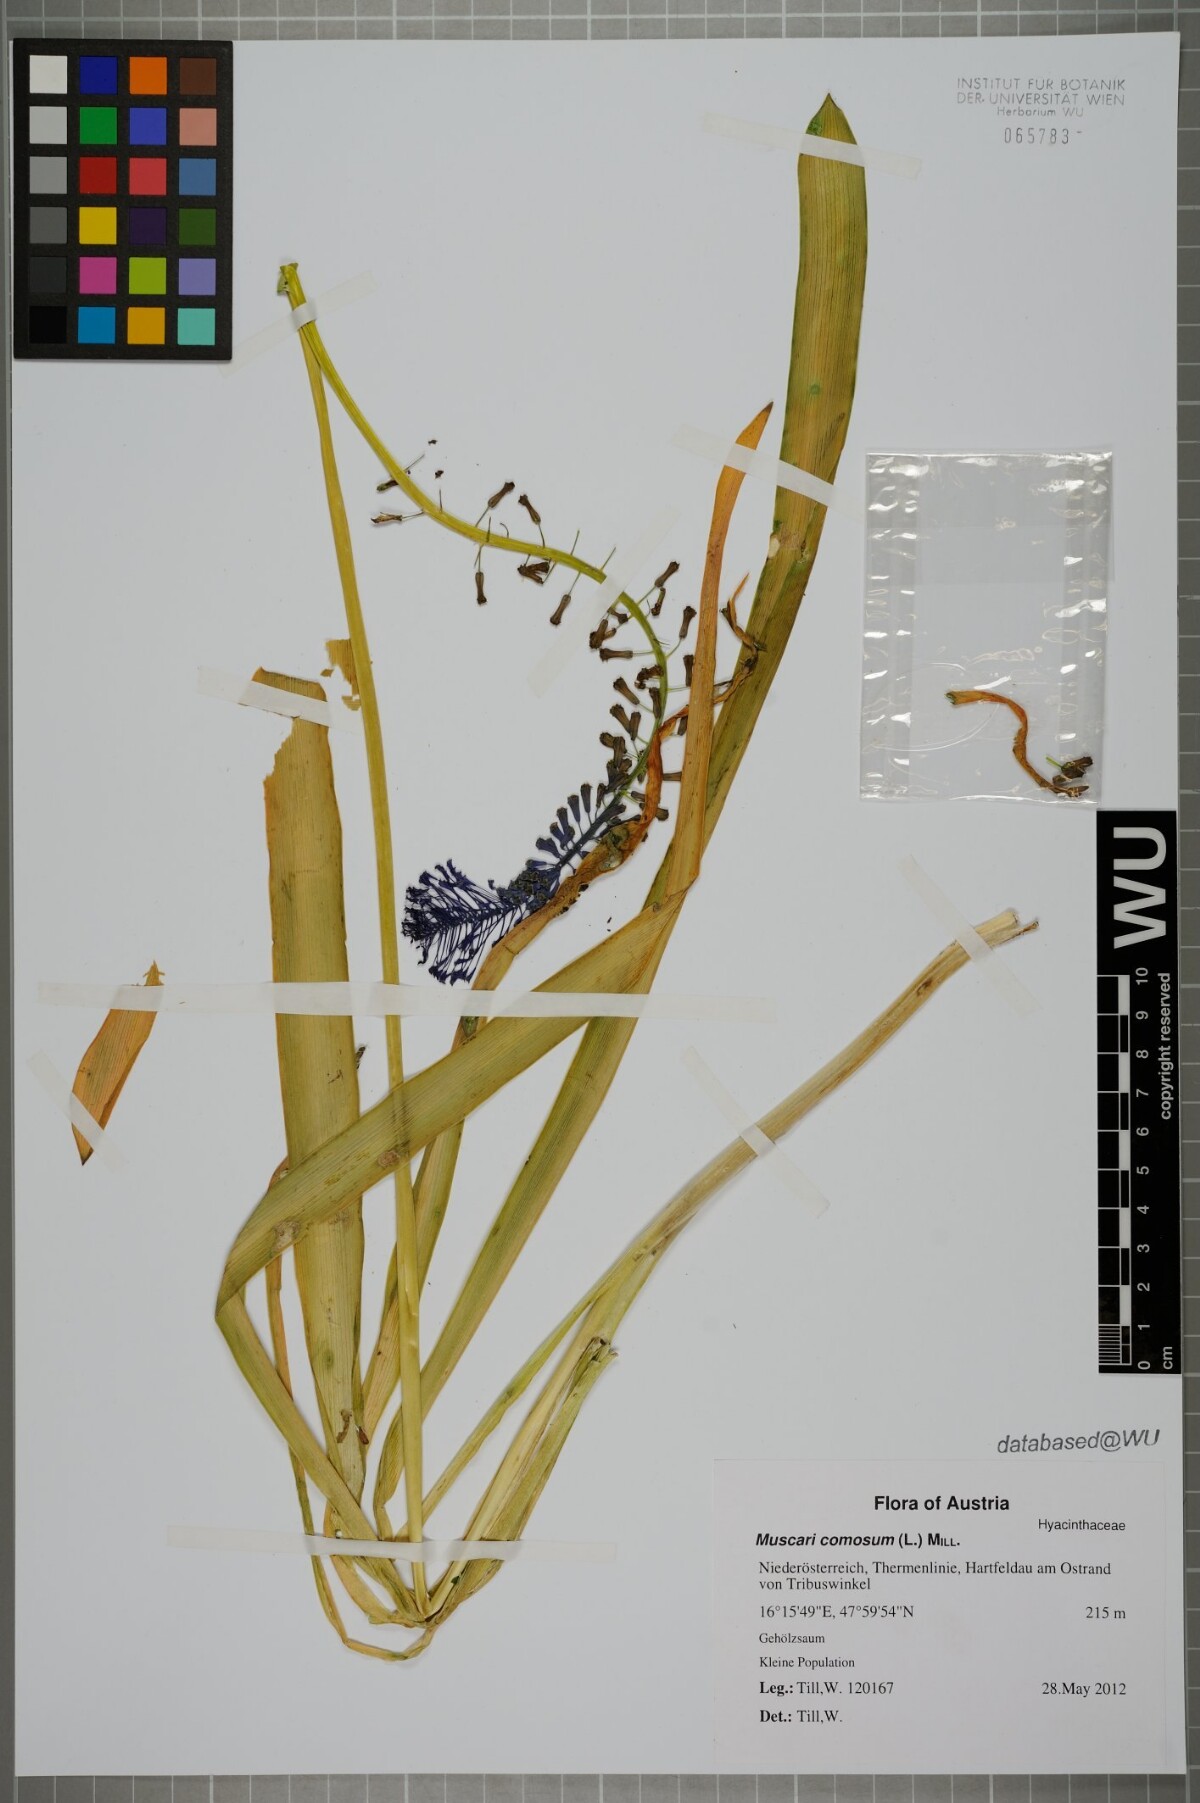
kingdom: Plantae
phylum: Tracheophyta
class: Liliopsida
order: Asparagales
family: Asparagaceae
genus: Muscari
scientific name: Muscari comosum
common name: Tassel hyacinth
